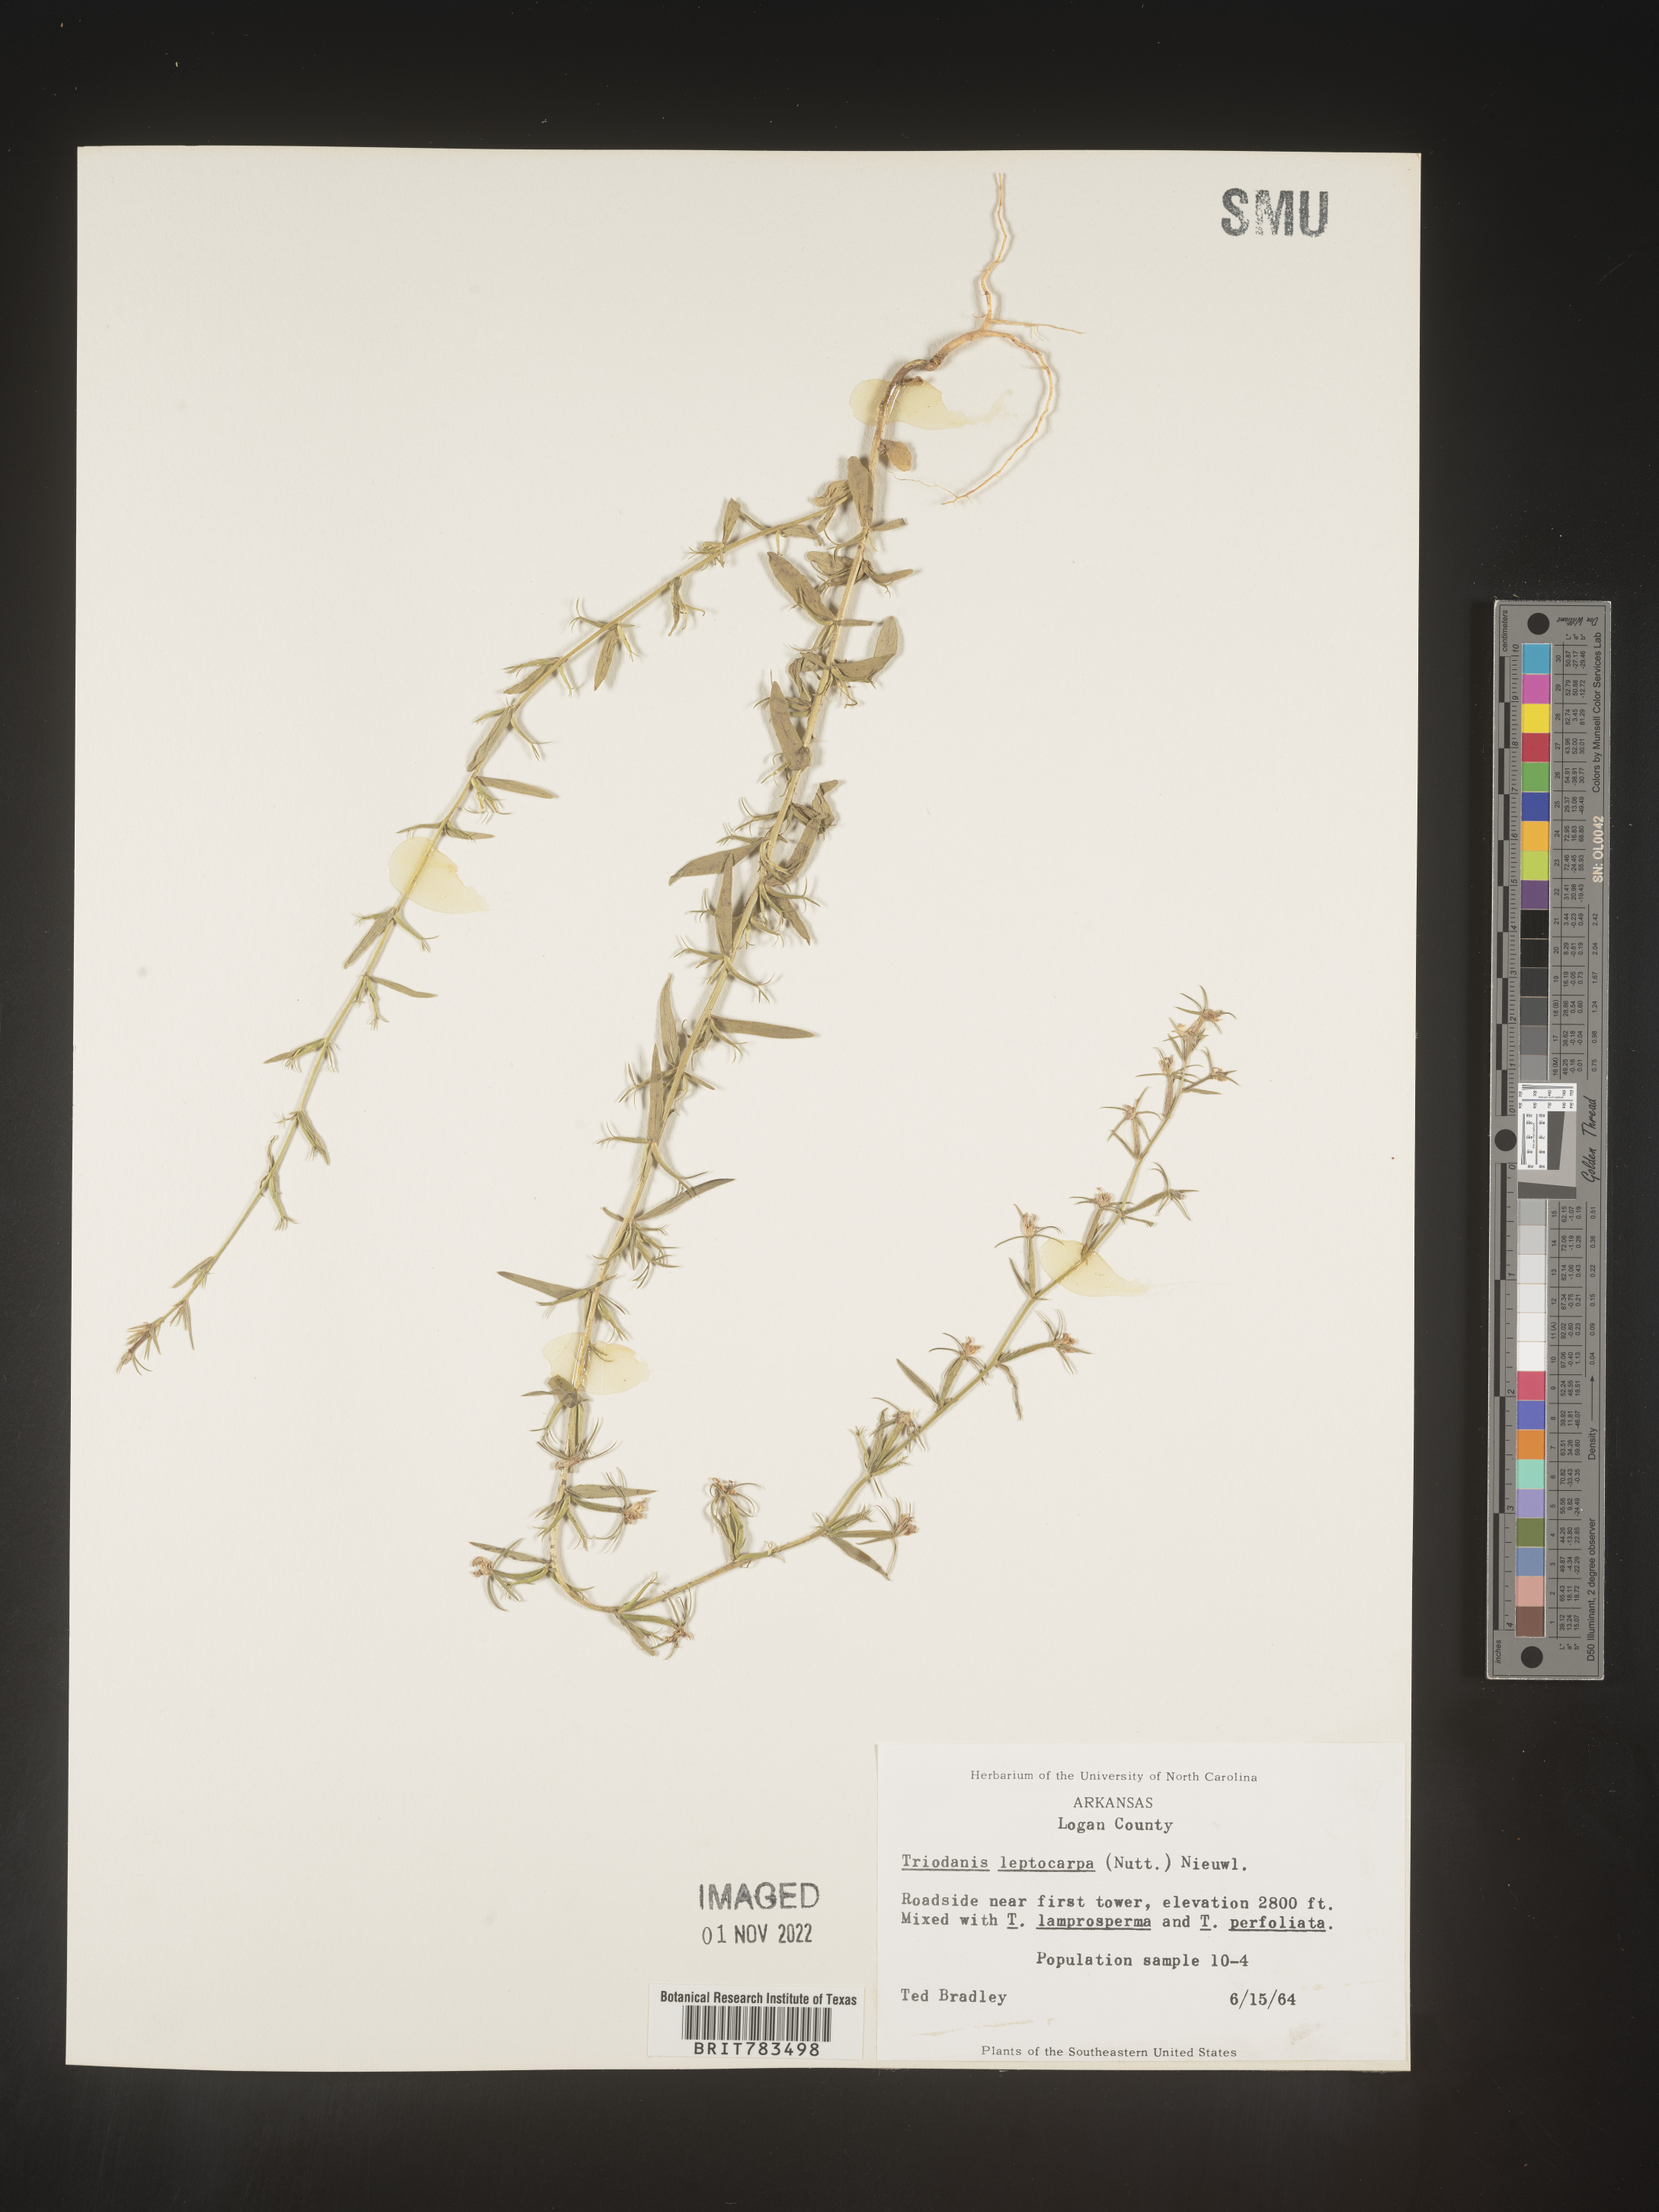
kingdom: Plantae
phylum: Tracheophyta
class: Magnoliopsida
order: Asterales
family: Campanulaceae
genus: Triodanis
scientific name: Triodanis leptocarpa
